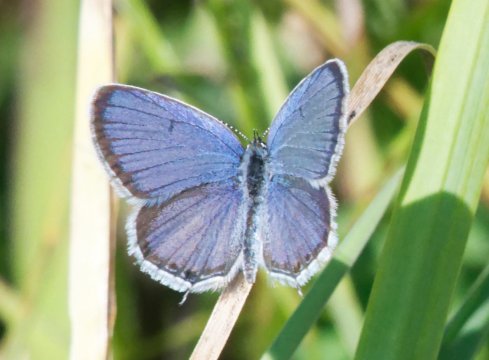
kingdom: Animalia
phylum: Arthropoda
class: Insecta
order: Lepidoptera
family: Lycaenidae
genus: Elkalyce
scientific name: Elkalyce comyntas
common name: Eastern Tailed-Blue
